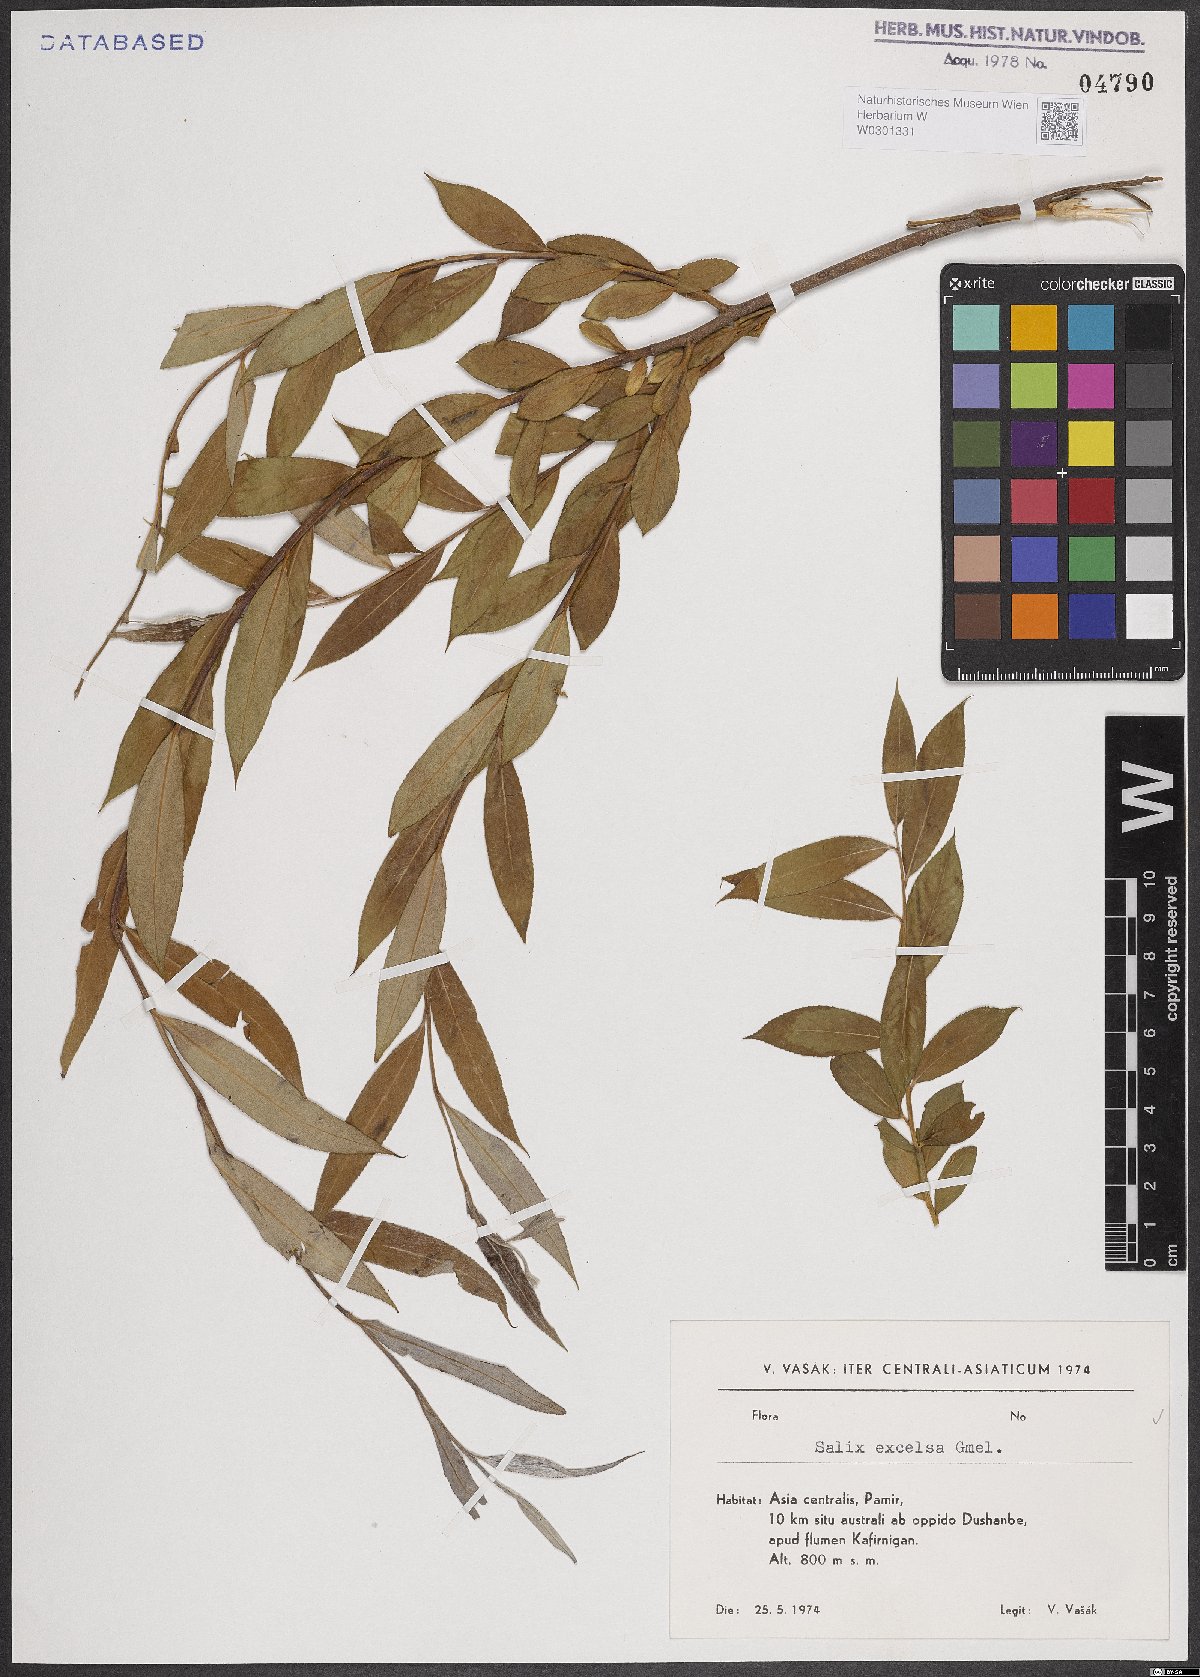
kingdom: Plantae
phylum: Tracheophyta
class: Magnoliopsida
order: Malpighiales
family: Salicaceae
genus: Salix
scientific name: Salix excelsa
